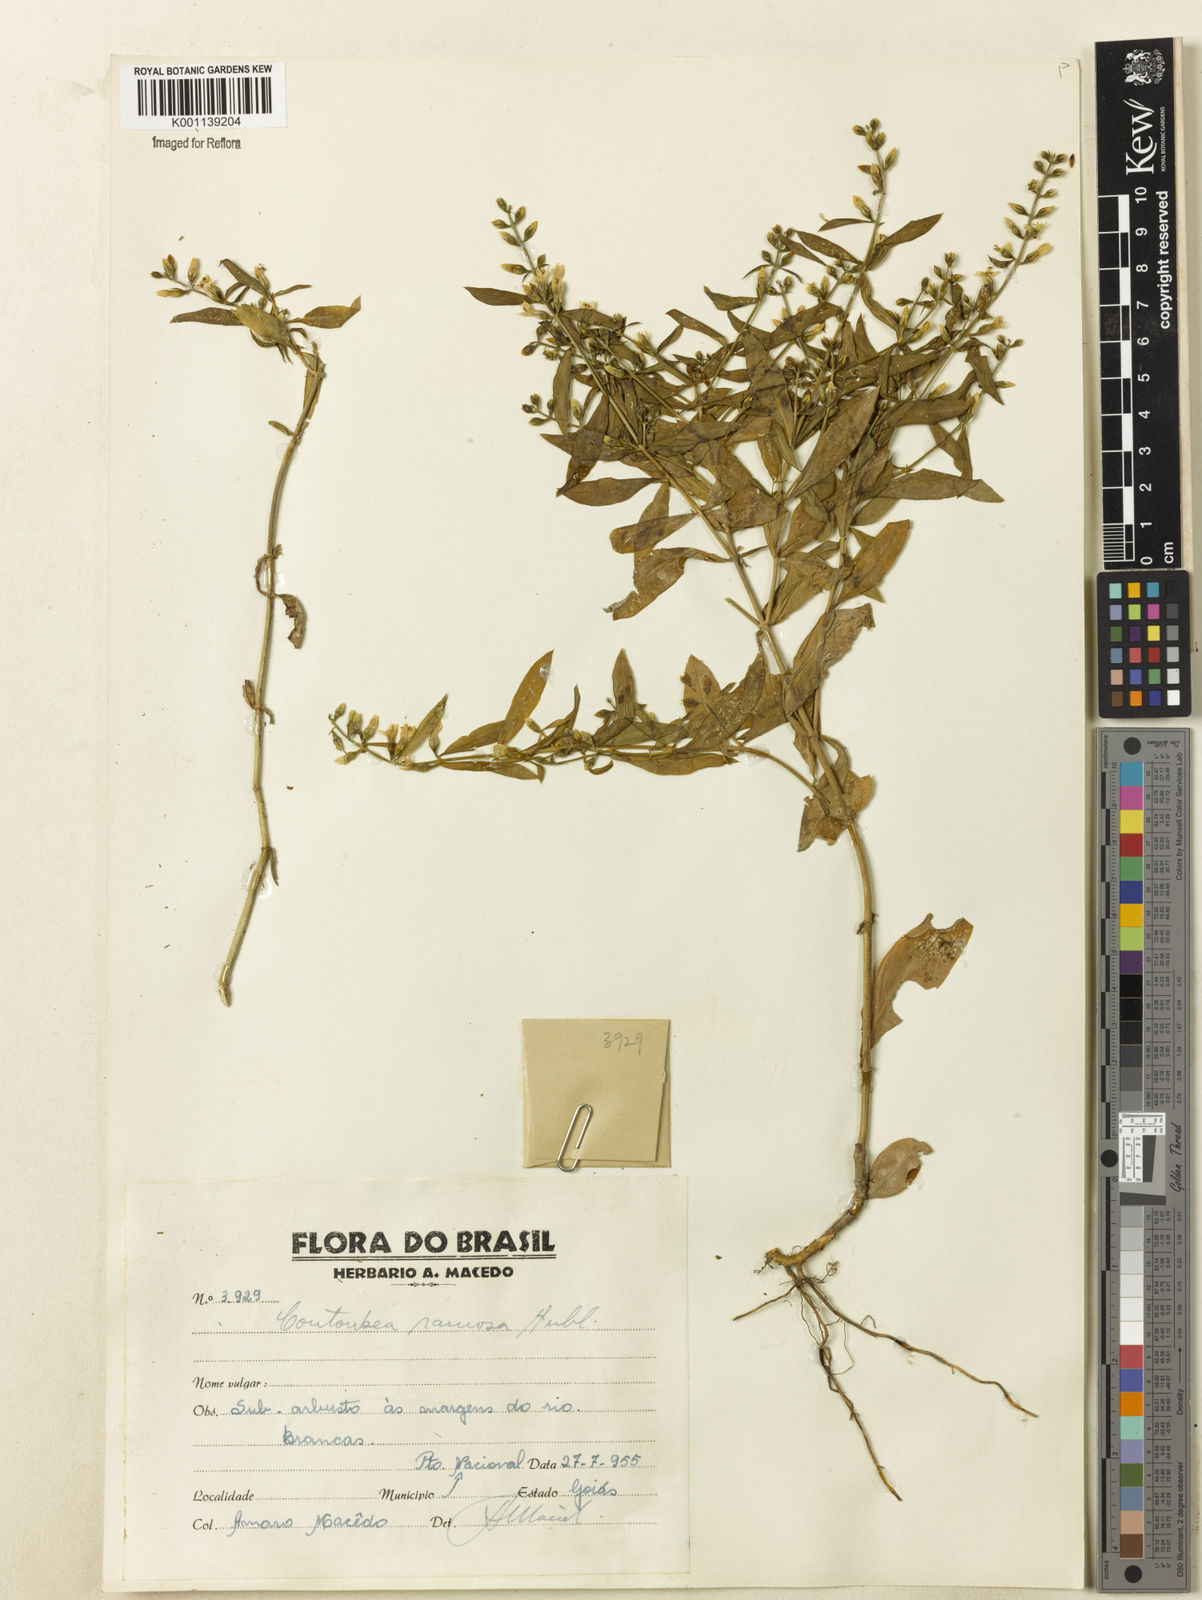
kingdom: Plantae
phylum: Tracheophyta
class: Magnoliopsida
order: Gentianales
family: Gentianaceae
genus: Coutoubea
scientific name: Coutoubea ramosa
